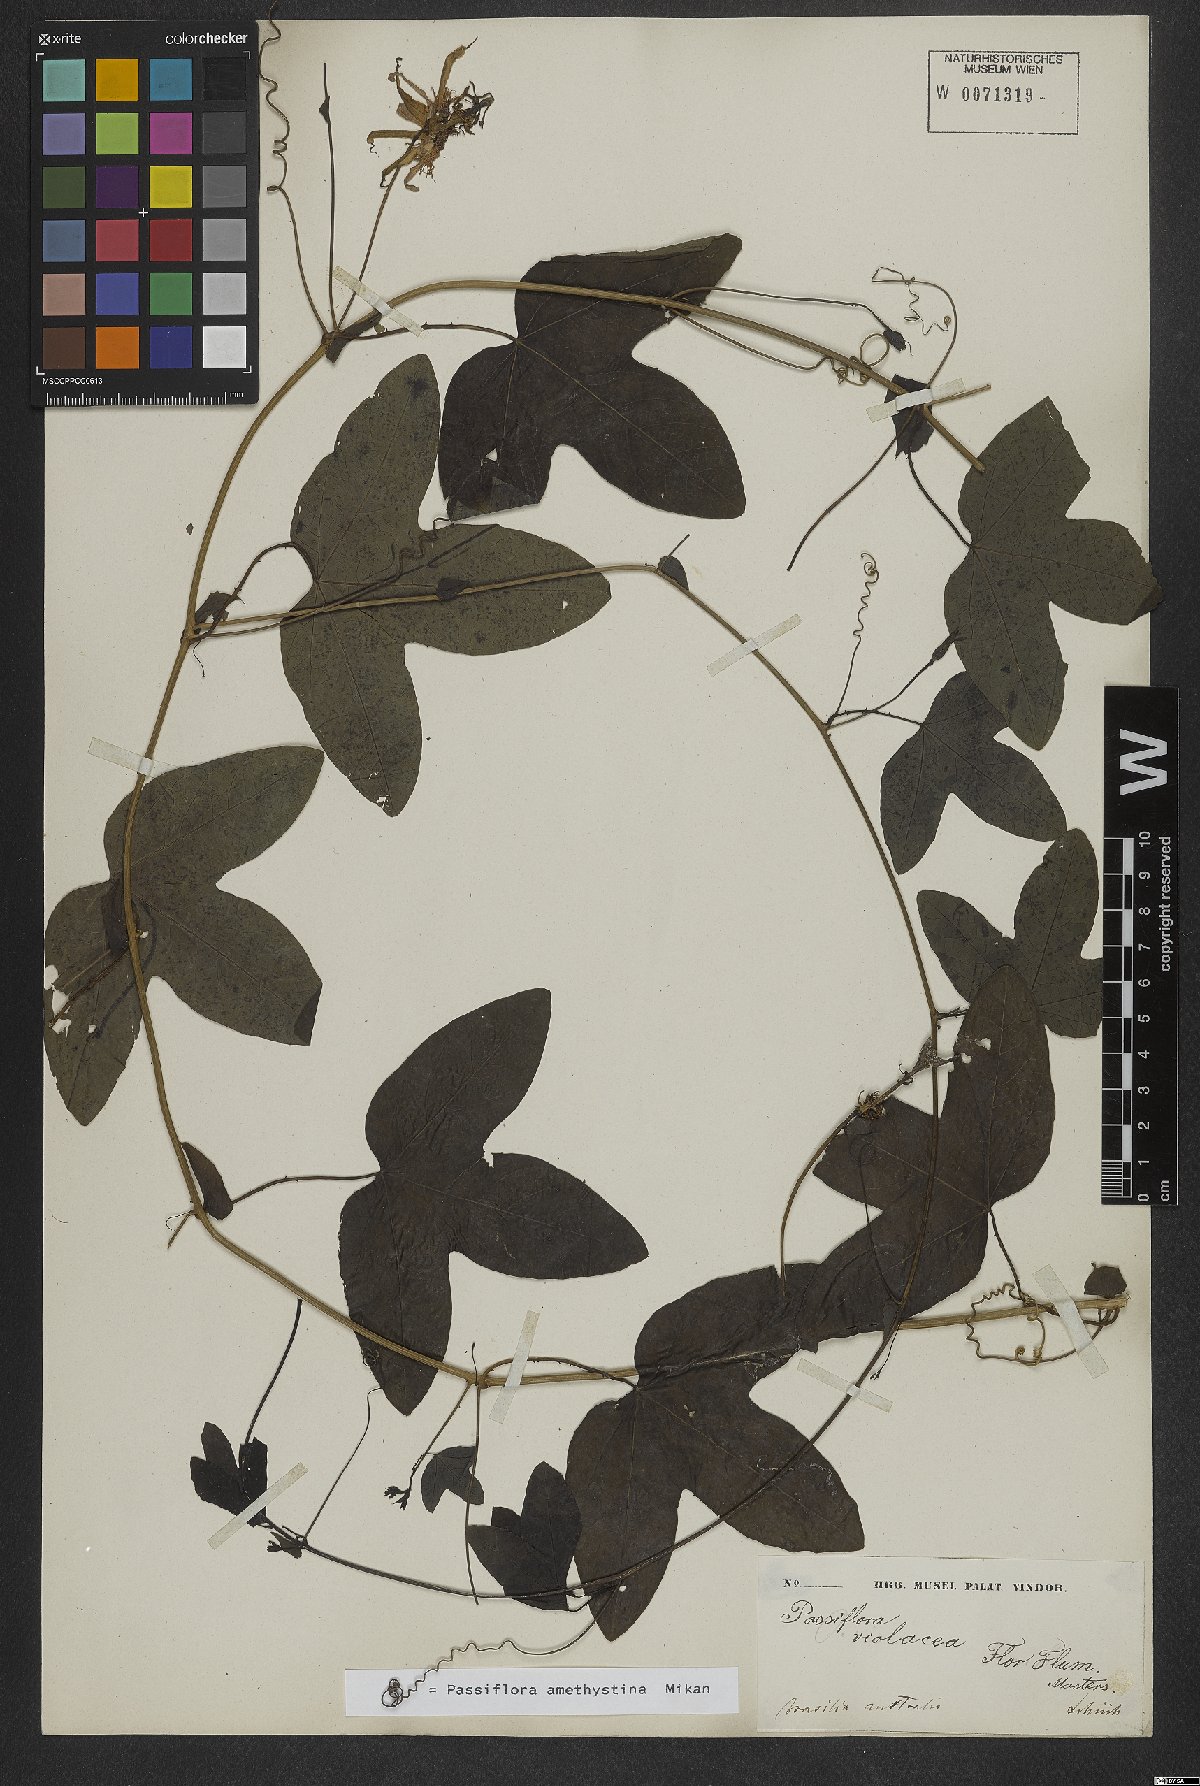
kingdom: Plantae
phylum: Tracheophyta
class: Magnoliopsida
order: Malpighiales
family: Passifloraceae
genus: Passiflora
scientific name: Passiflora amethystina
